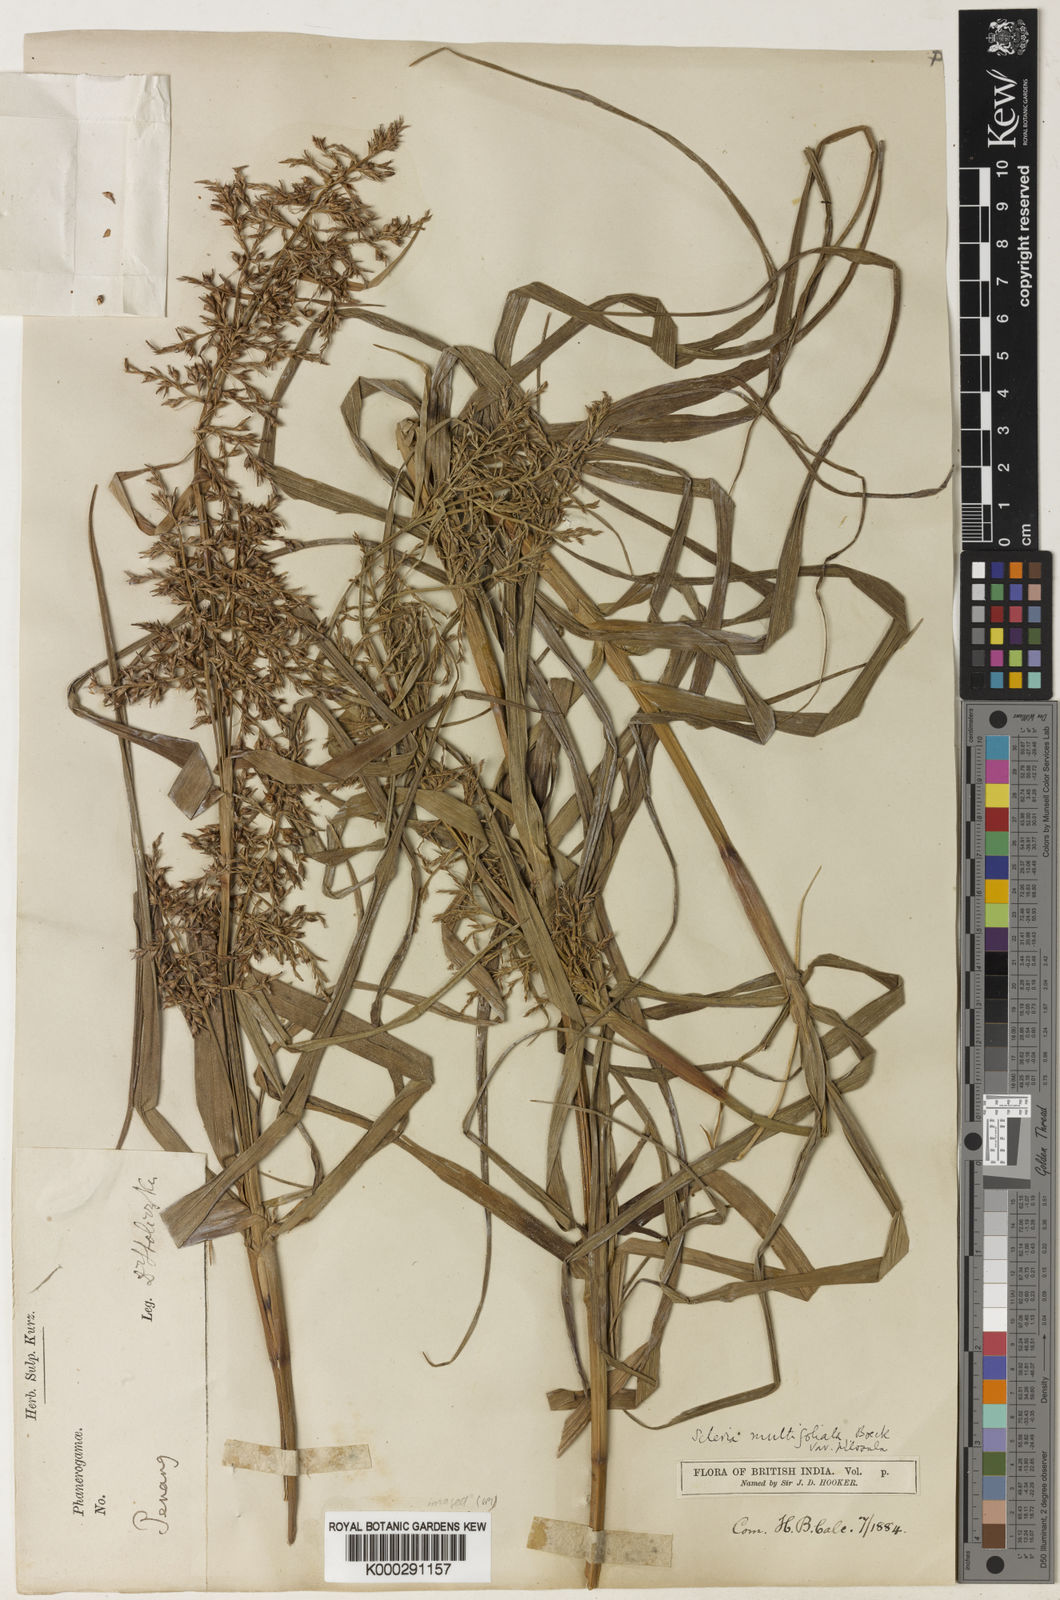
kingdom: Plantae
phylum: Tracheophyta
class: Liliopsida
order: Poales
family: Cyperaceae
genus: Scleria
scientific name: Scleria purpurascens
